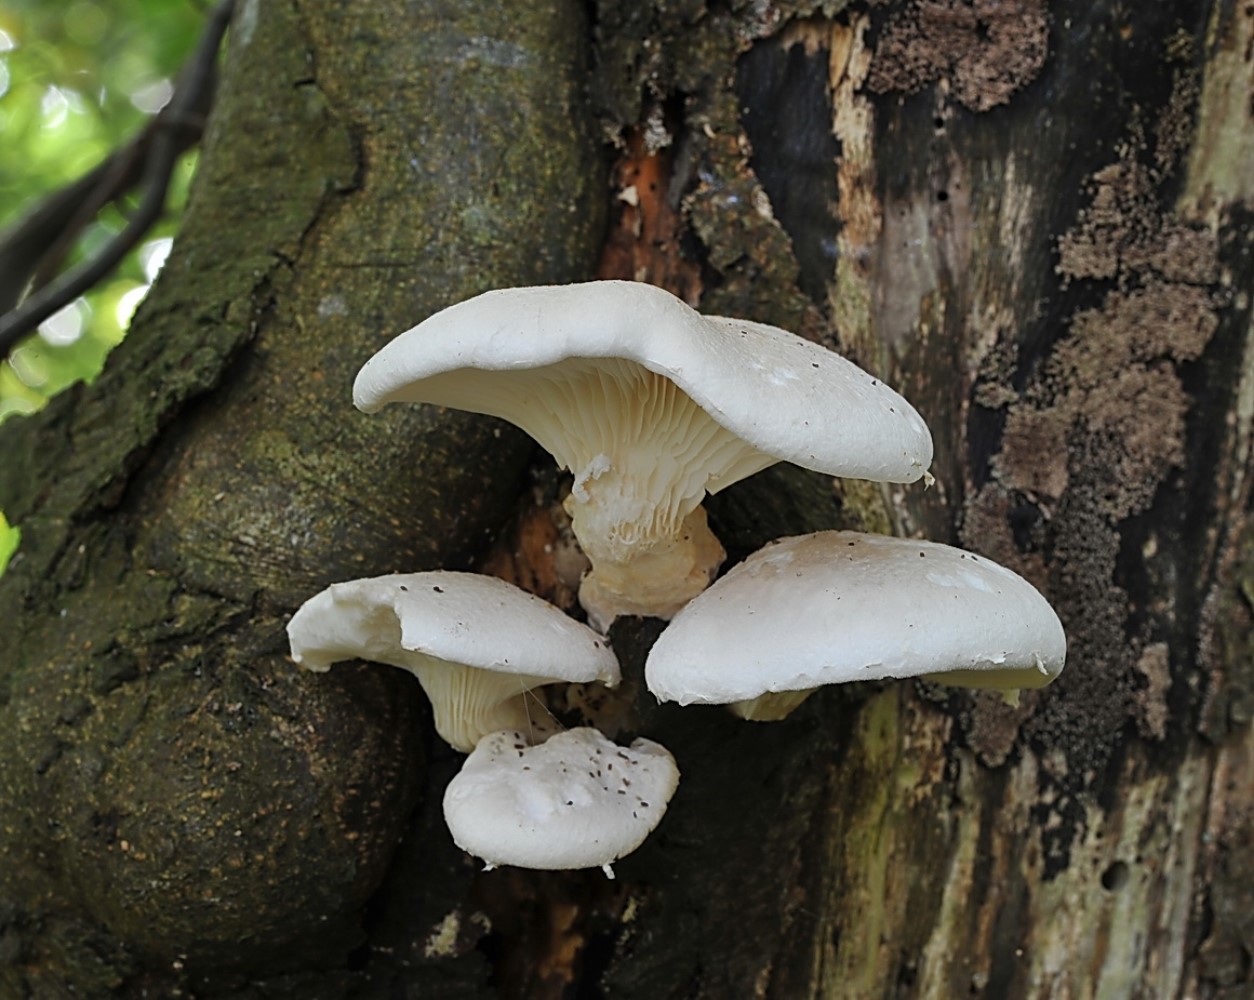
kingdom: Fungi
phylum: Basidiomycota
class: Agaricomycetes
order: Agaricales
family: Pleurotaceae
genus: Pleurotus
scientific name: Pleurotus dryinus
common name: korkagtig østershat
